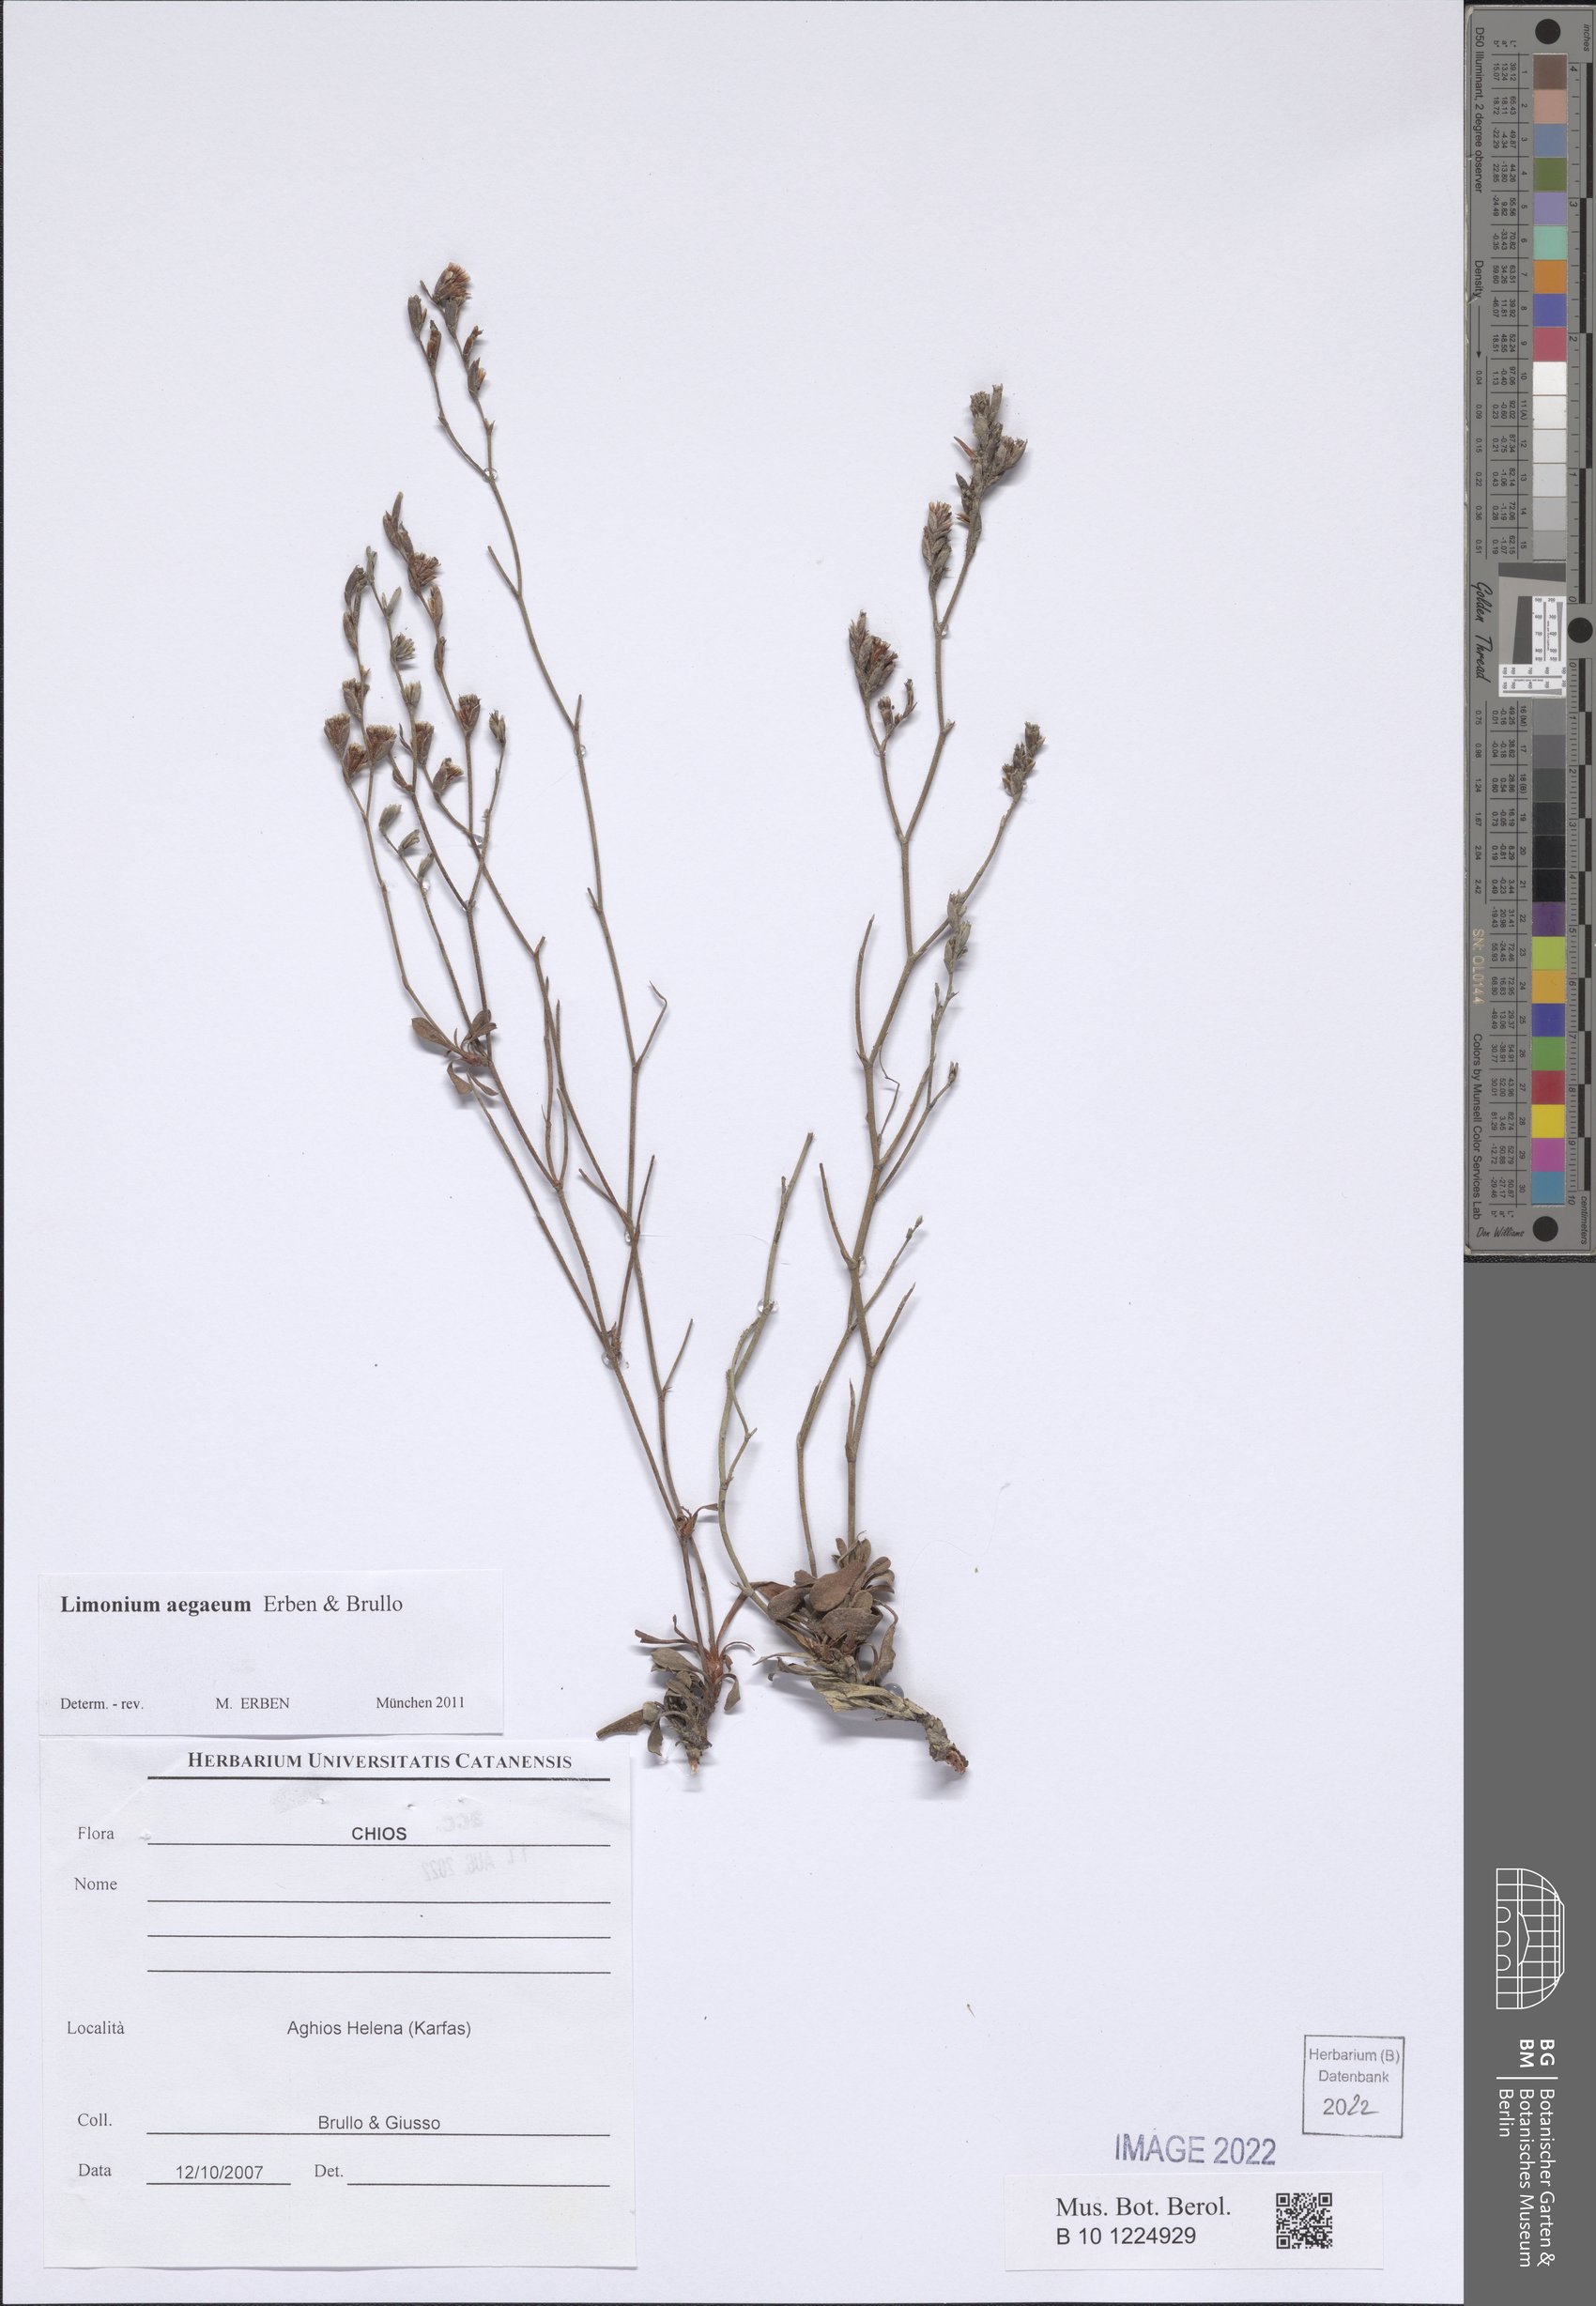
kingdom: Plantae
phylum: Tracheophyta
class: Magnoliopsida
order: Caryophyllales
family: Plumbaginaceae
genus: Limonium
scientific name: Limonium aegaeum
